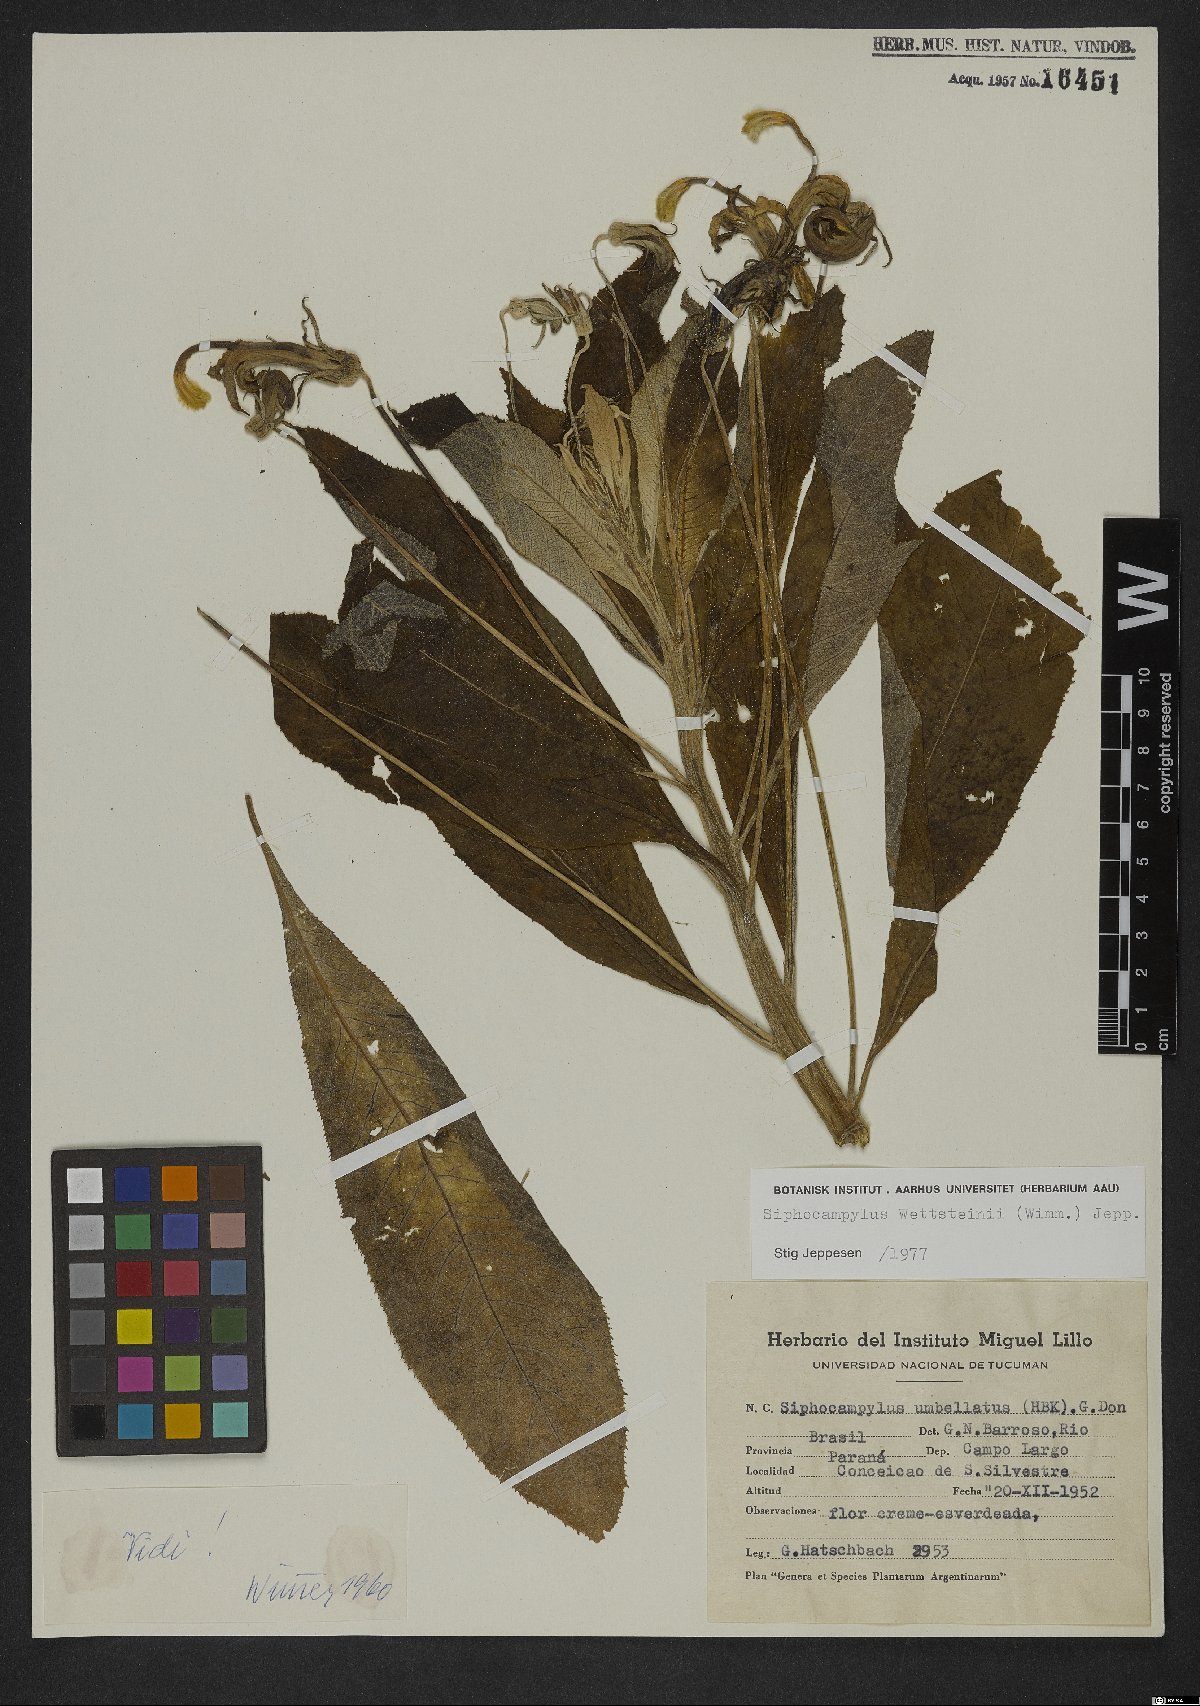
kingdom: Plantae
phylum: Tracheophyta
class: Magnoliopsida
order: Asterales
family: Campanulaceae
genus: Siphocampylus
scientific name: Siphocampylus
